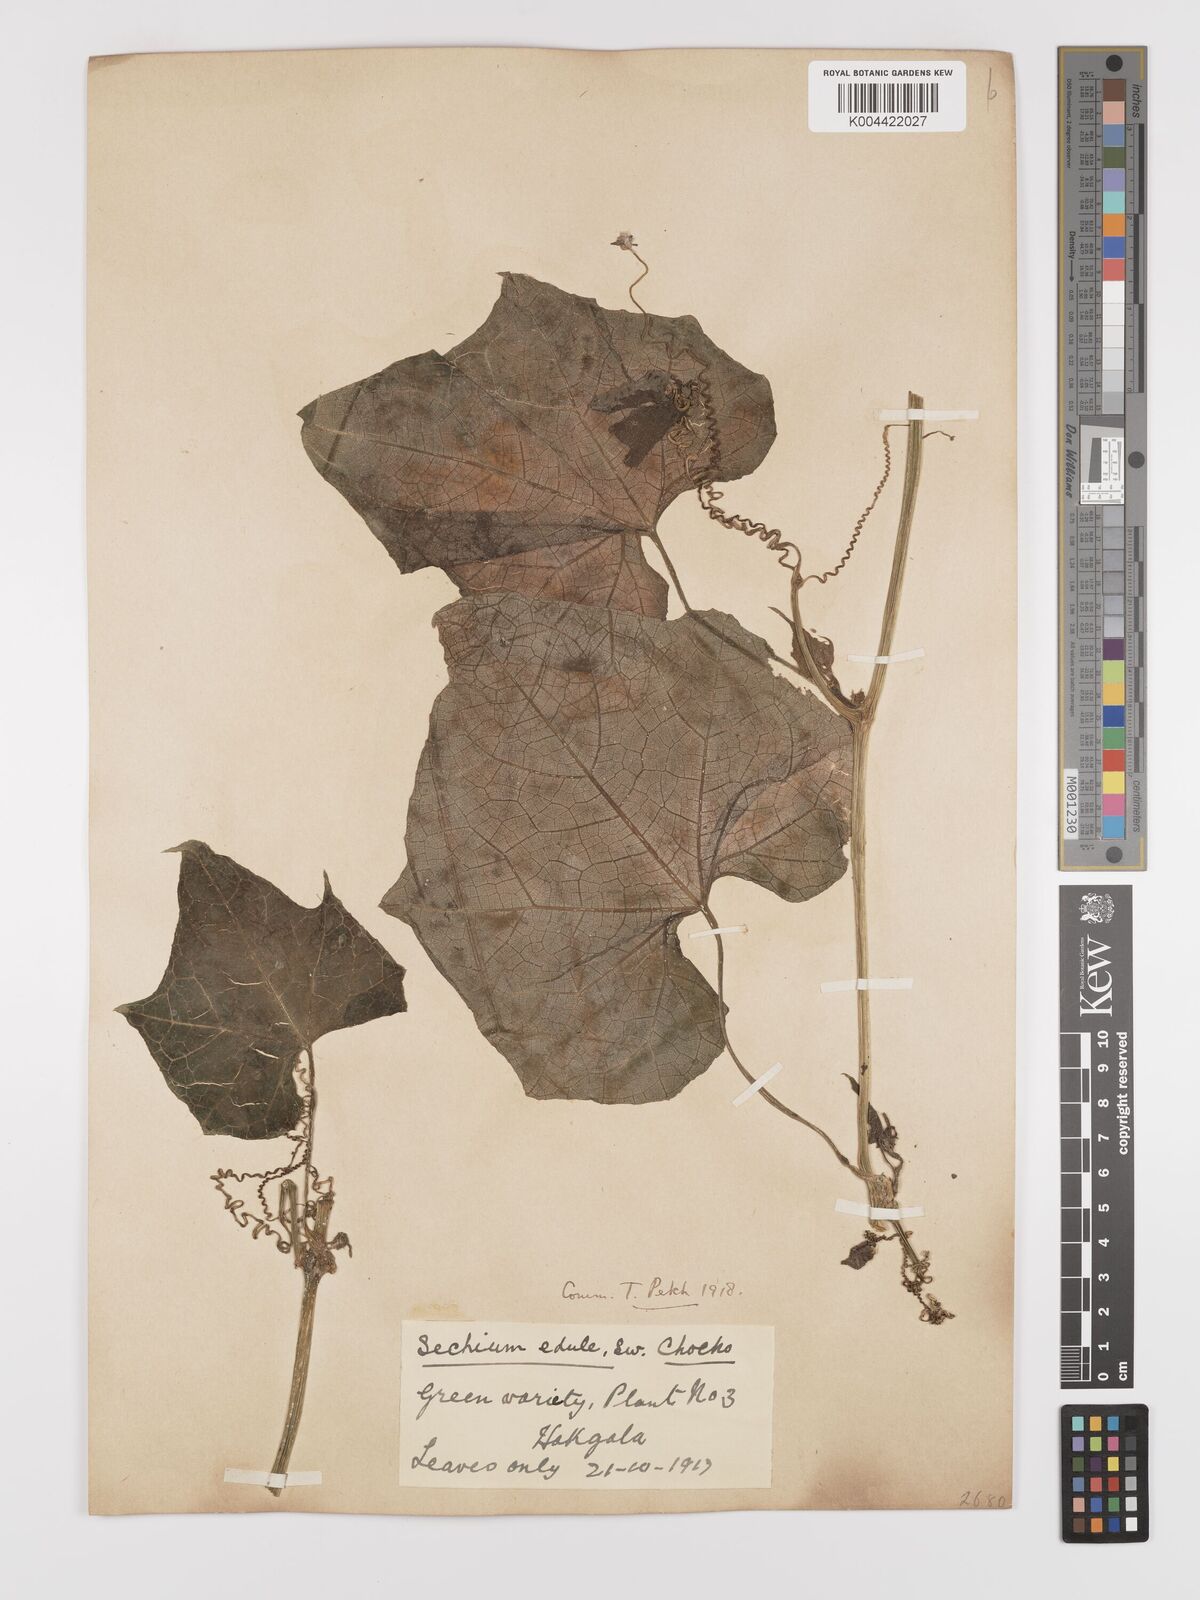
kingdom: Plantae
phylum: Tracheophyta
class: Magnoliopsida
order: Cucurbitales
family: Cucurbitaceae
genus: Sechium
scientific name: Sechium edule
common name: Chayote
